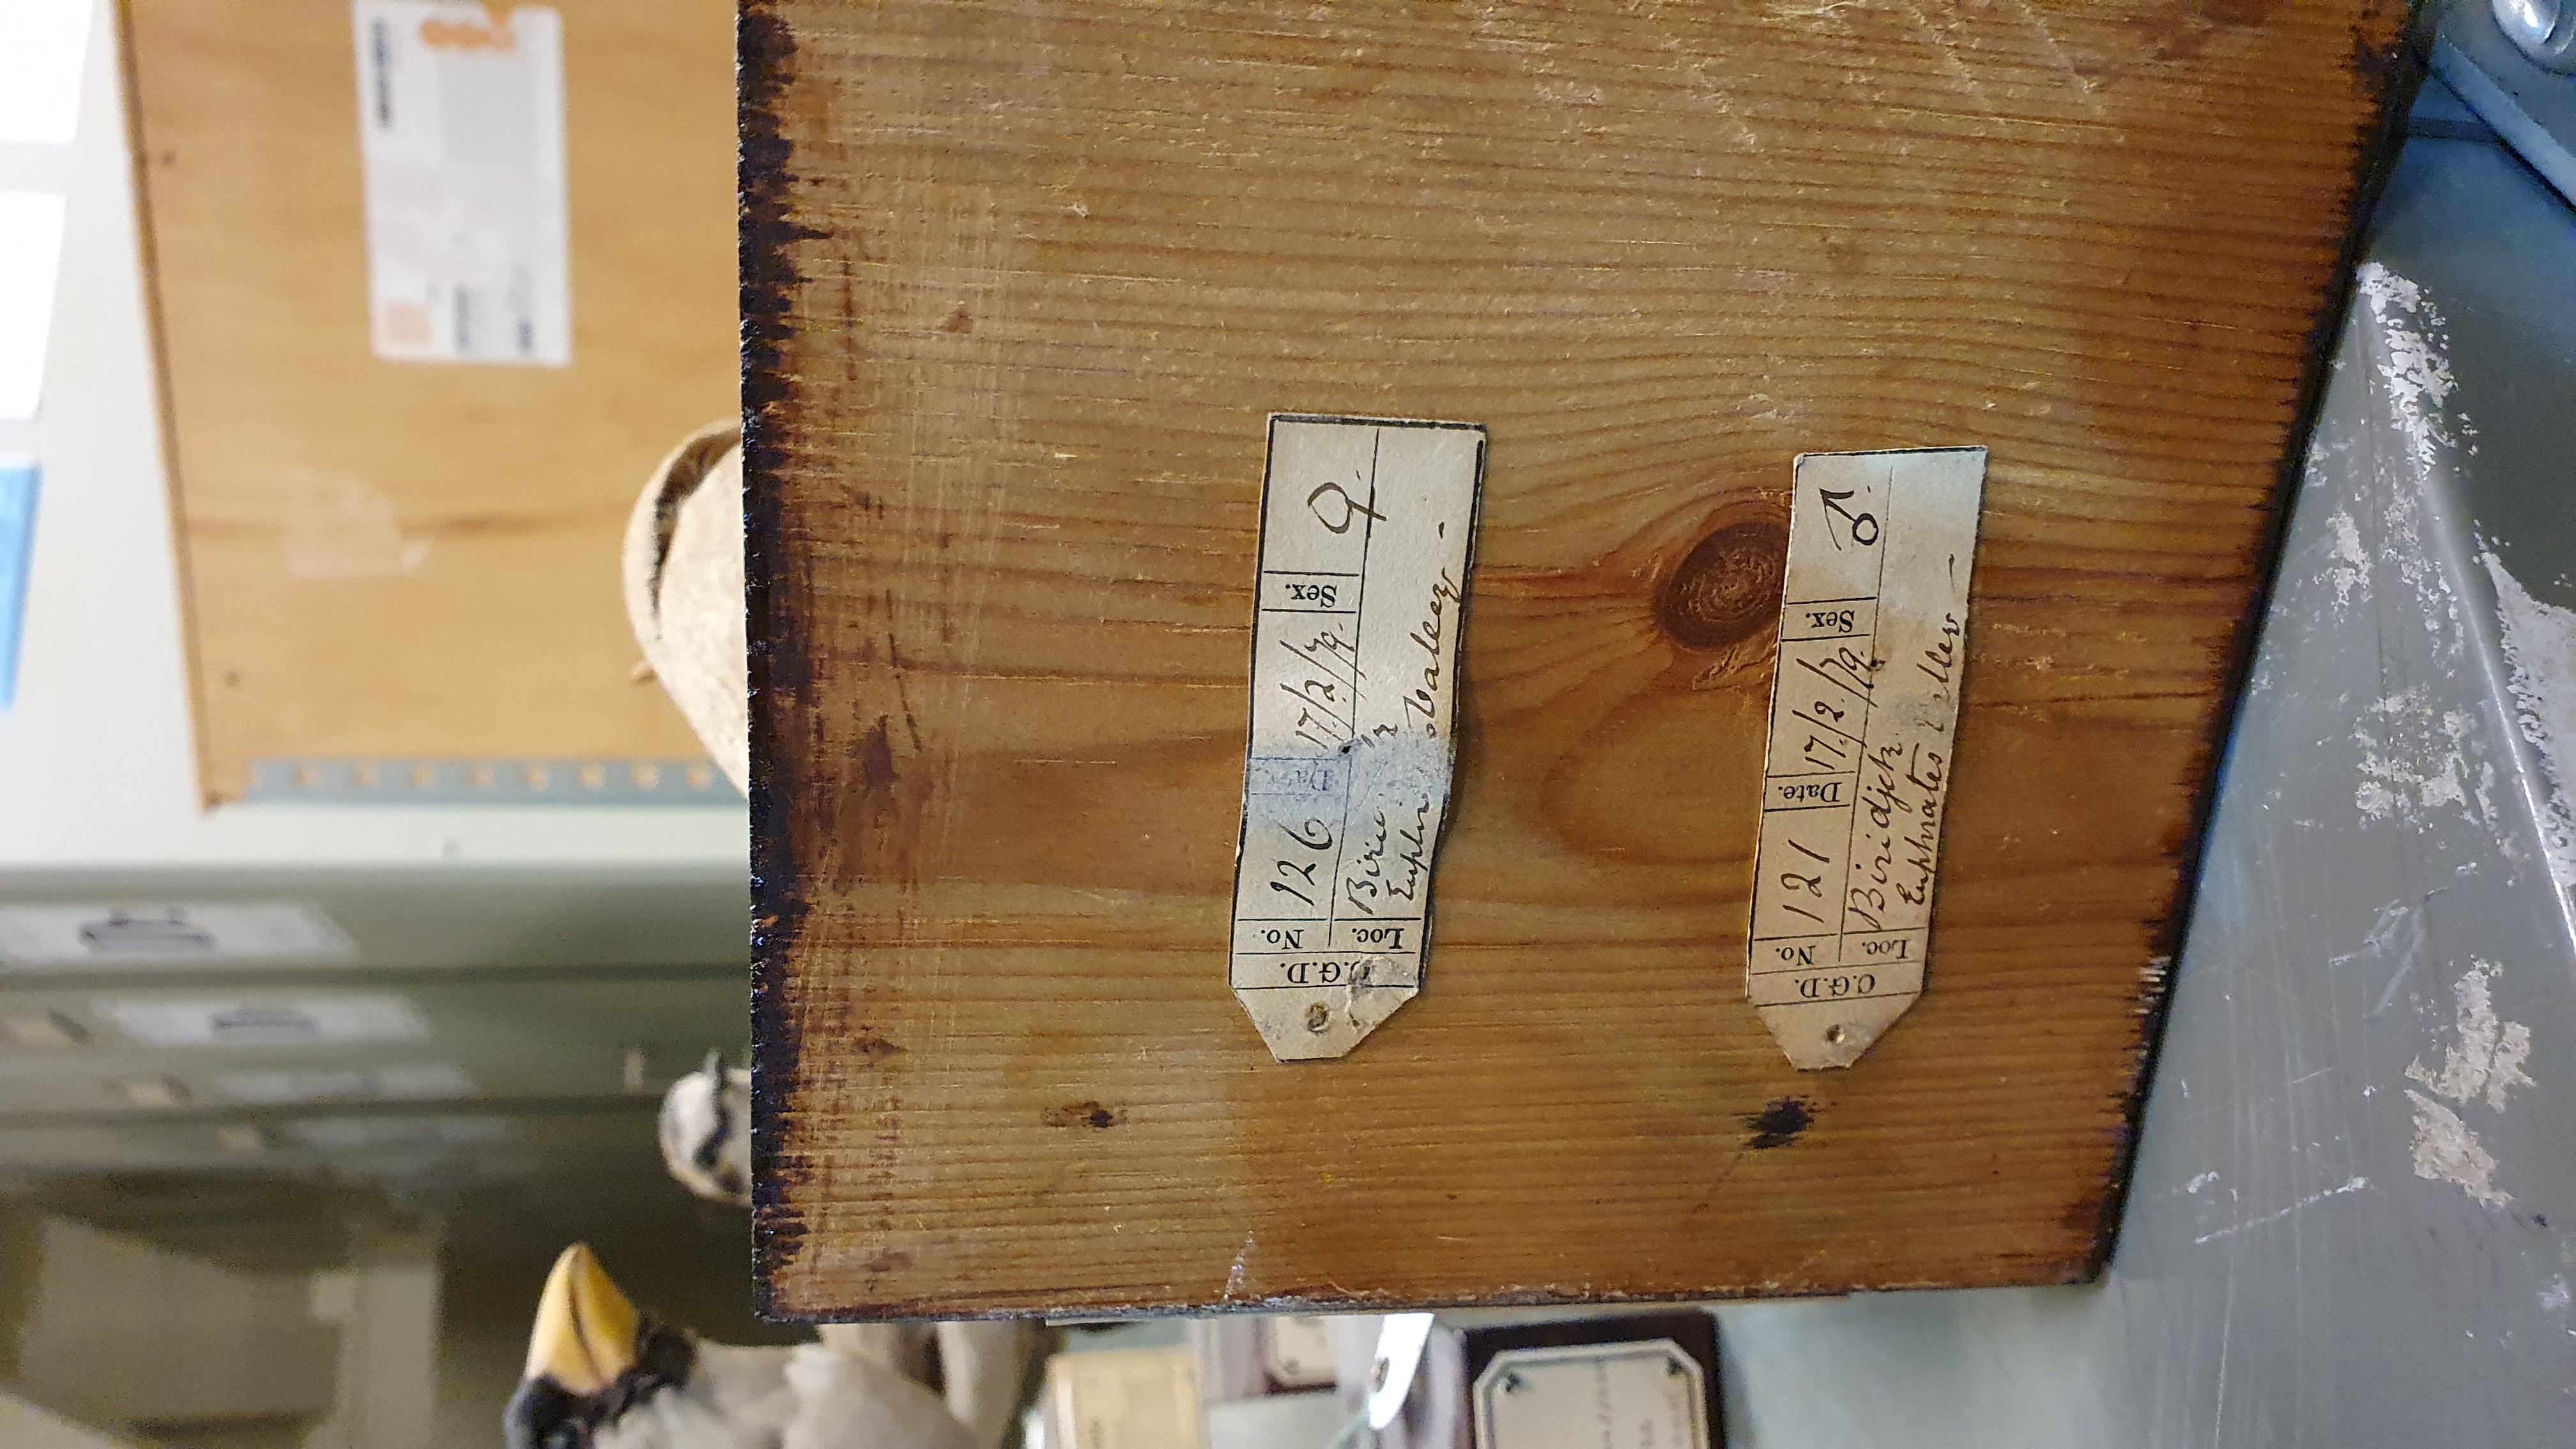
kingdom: Animalia
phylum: Chordata
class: Aves
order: Galliformes
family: Phasianidae
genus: Ammoperdix
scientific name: Ammoperdix griseogularis
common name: See-see partridge
